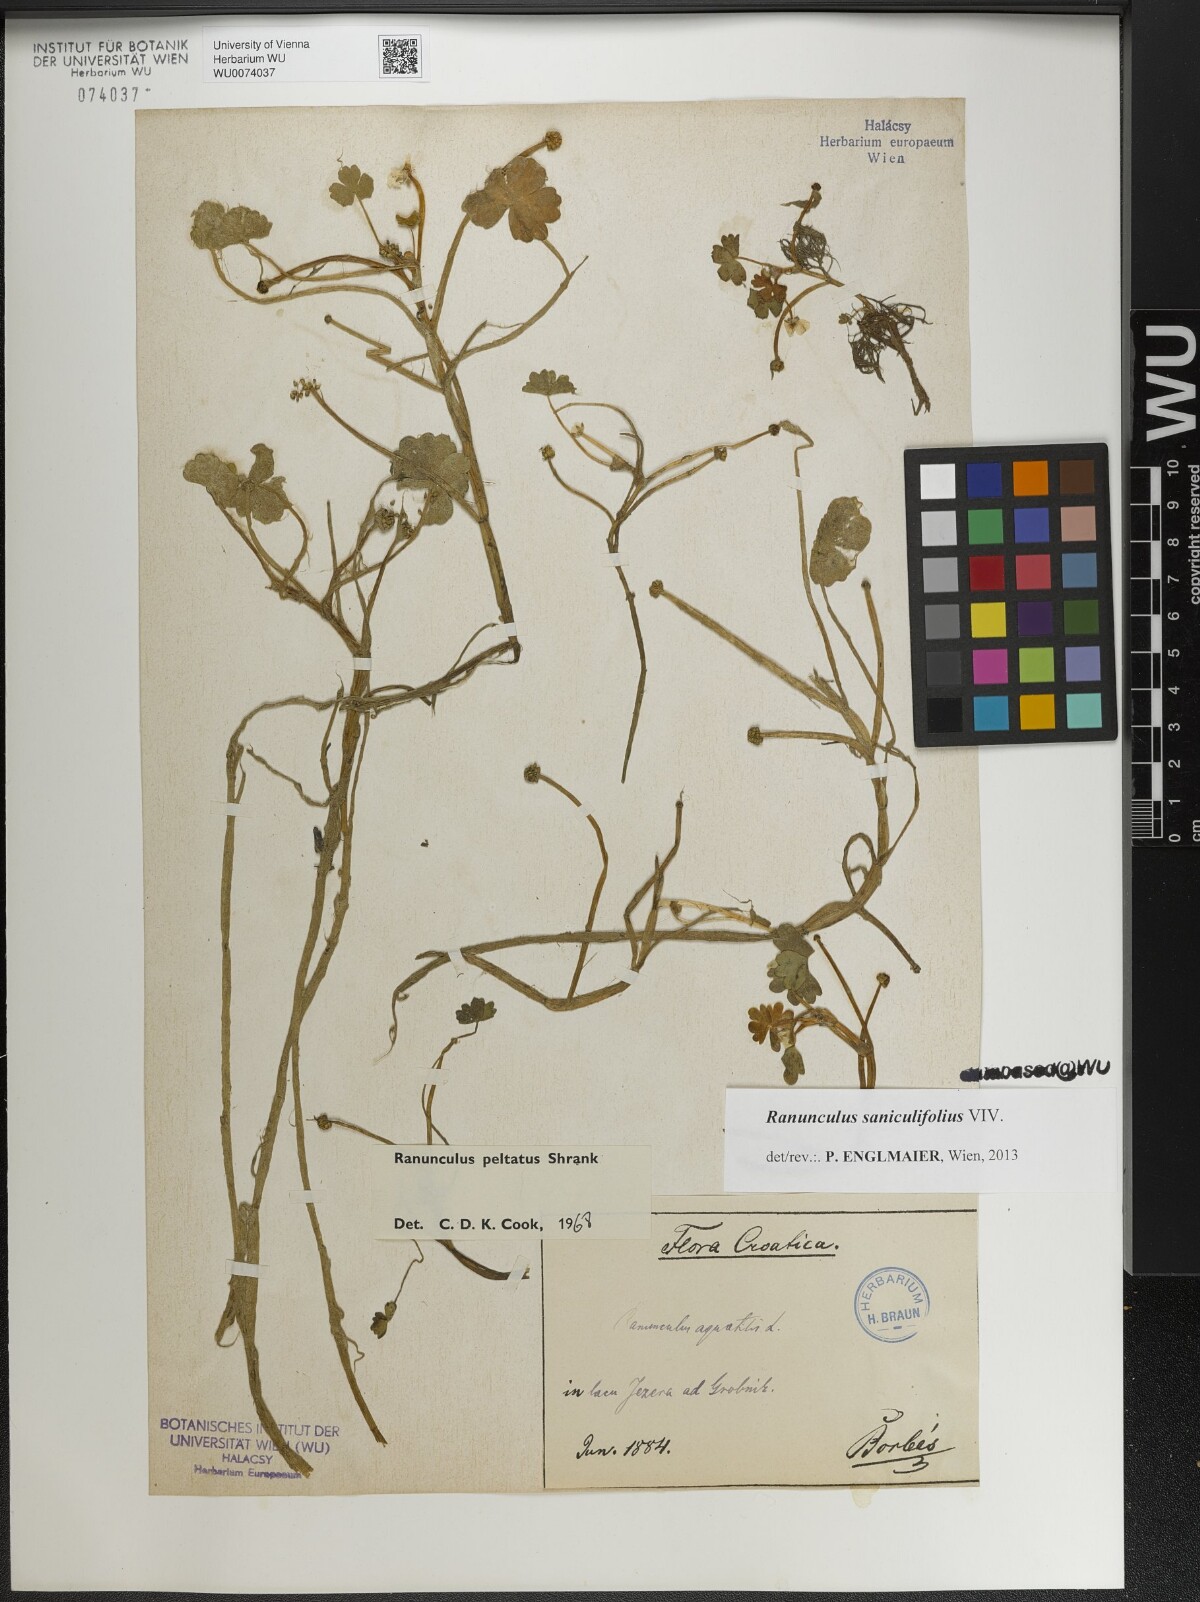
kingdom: Plantae
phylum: Tracheophyta
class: Magnoliopsida
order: Ranunculales
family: Ranunculaceae
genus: Ranunculus
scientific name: Ranunculus peltatus
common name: Pond water-crowfoot
